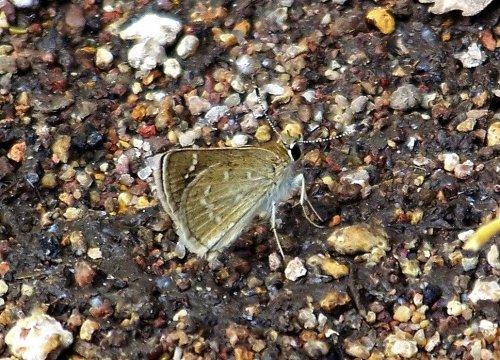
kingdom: Animalia
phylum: Arthropoda
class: Insecta
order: Lepidoptera
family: Hesperiidae
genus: Mastor
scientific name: Mastor nereus
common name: Slaty Roadside-Skipper
